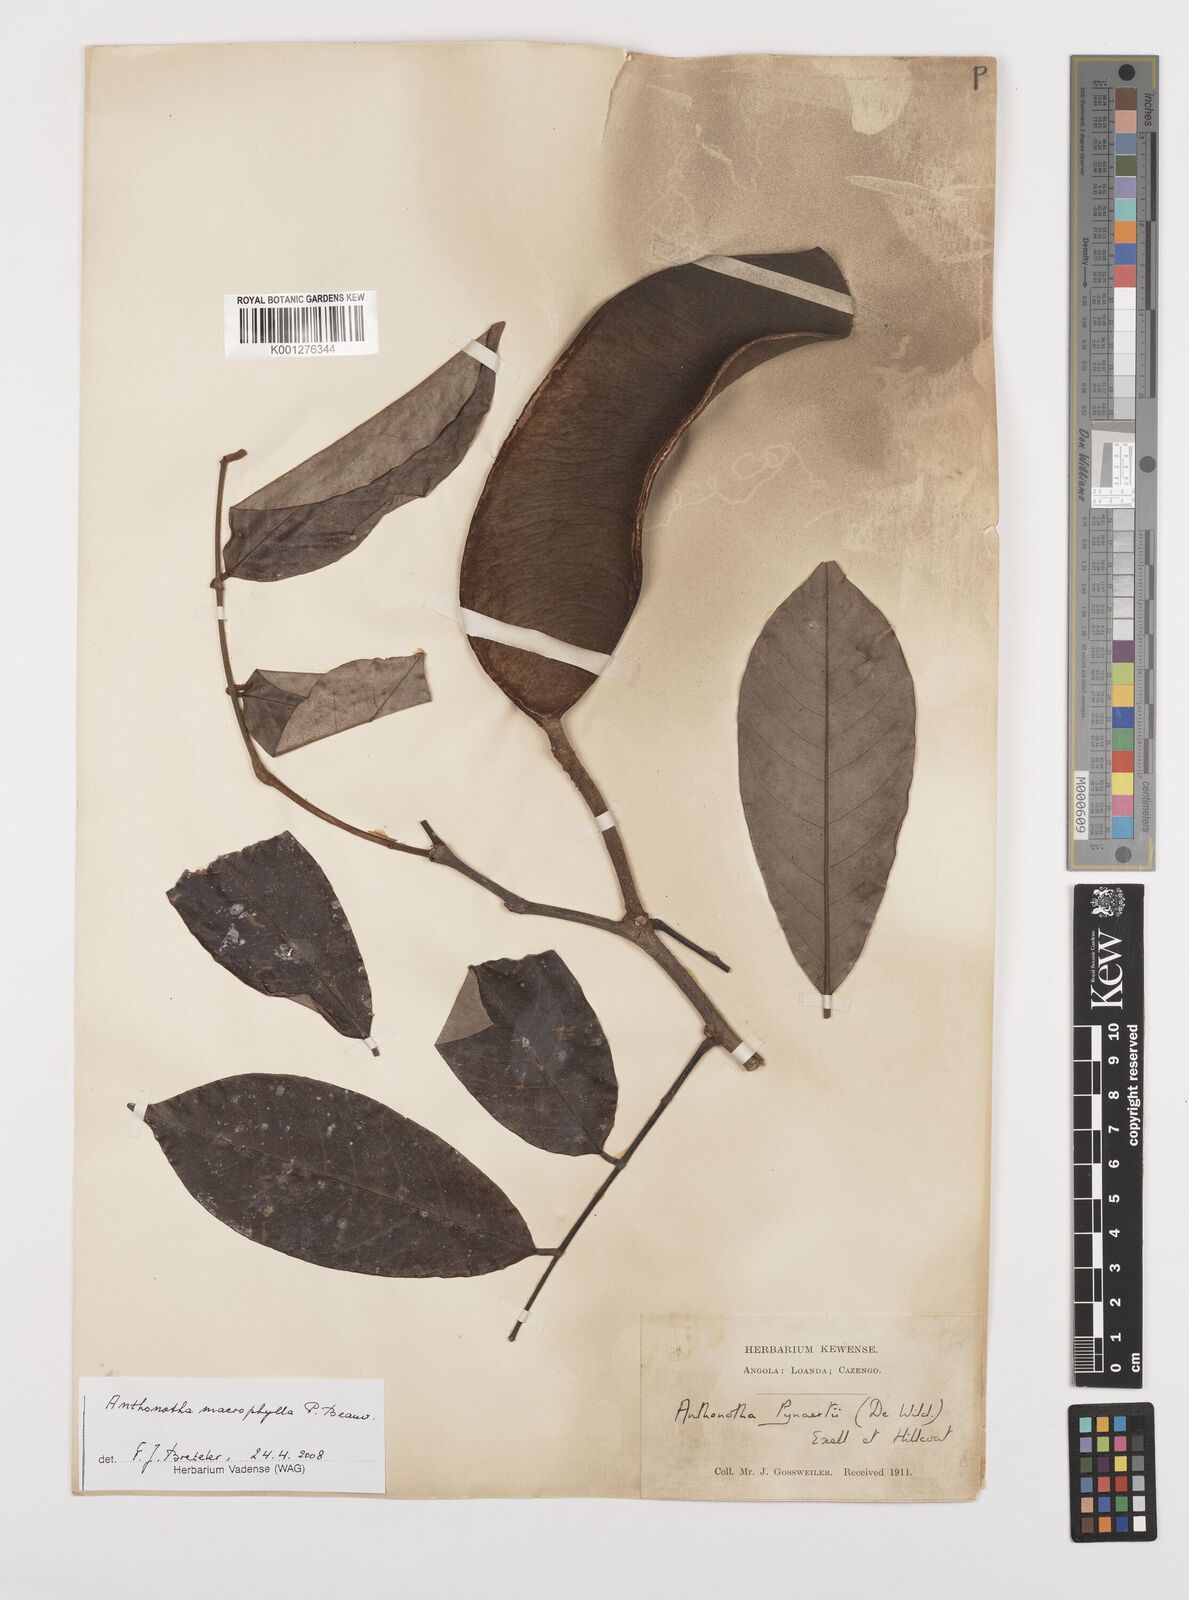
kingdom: Plantae
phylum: Tracheophyta
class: Magnoliopsida
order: Fabales
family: Fabaceae
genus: Anthonotha
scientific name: Anthonotha macrophylla
